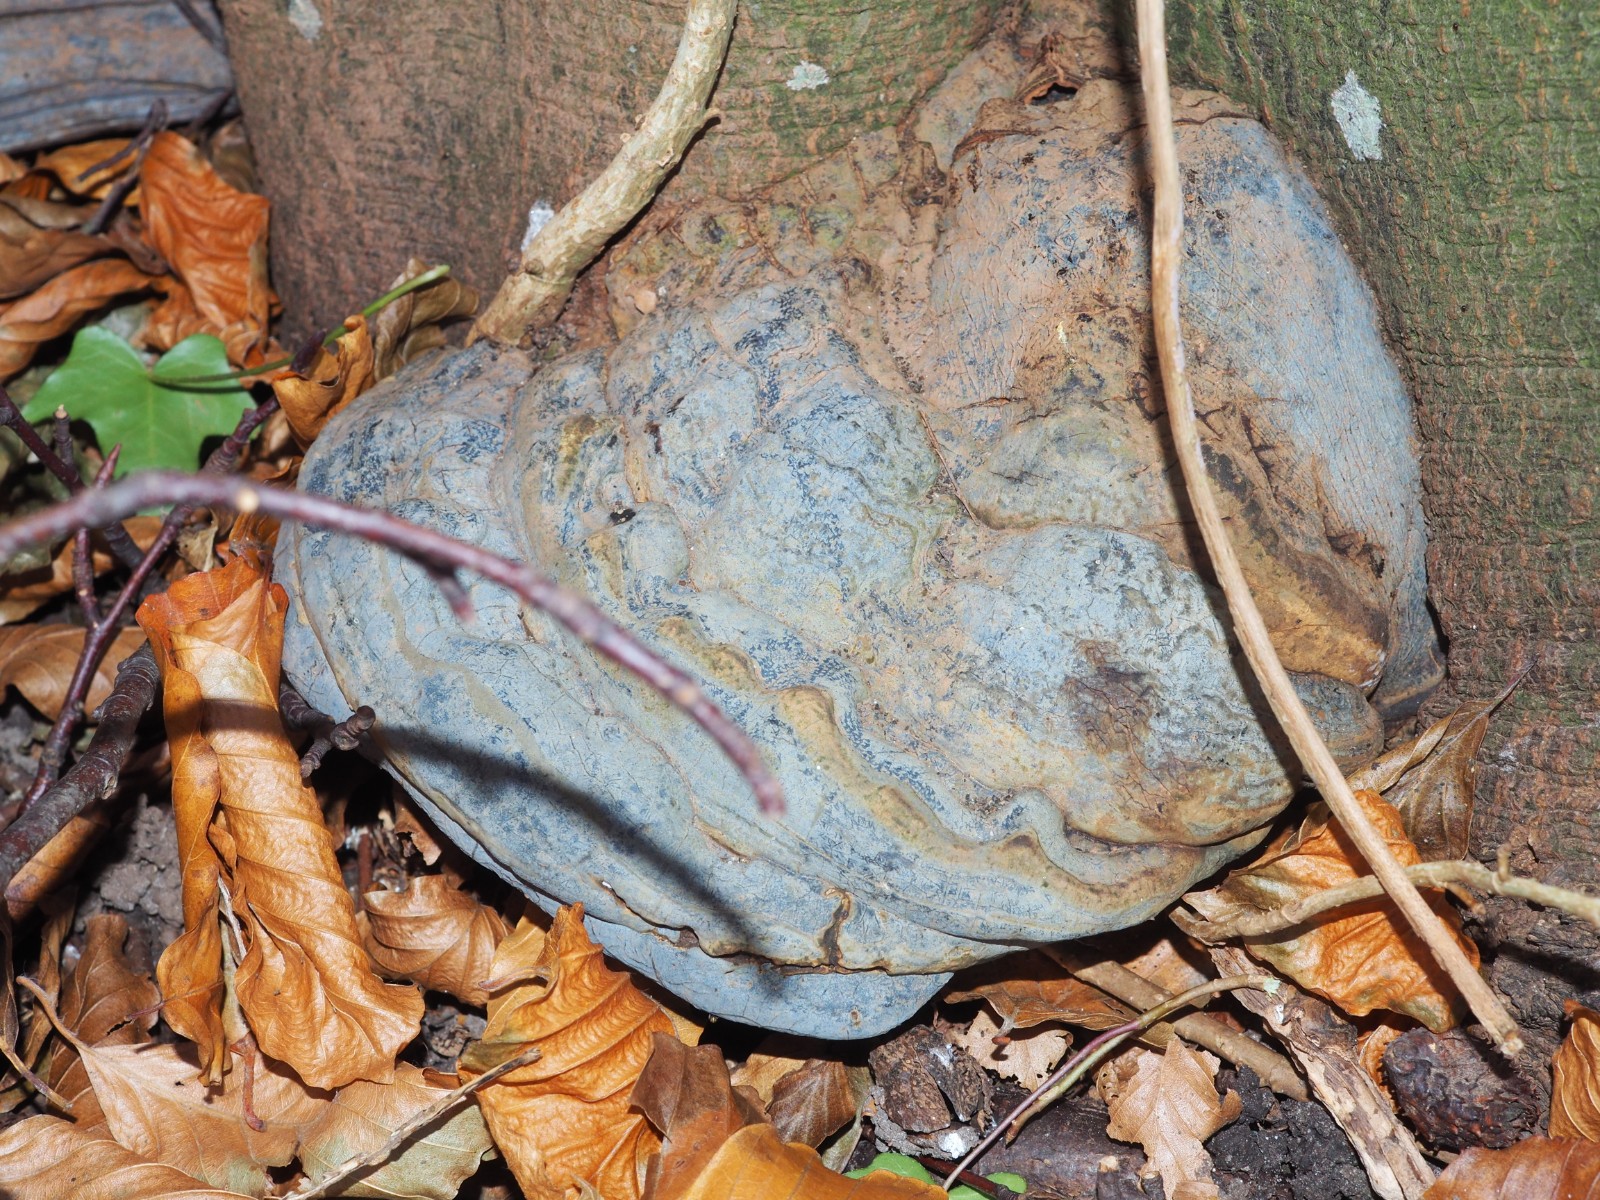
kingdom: Fungi
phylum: Basidiomycota
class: Agaricomycetes
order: Polyporales
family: Polyporaceae
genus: Ganoderma
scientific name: Ganoderma pfeifferi
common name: kobberrød lakporesvamp
